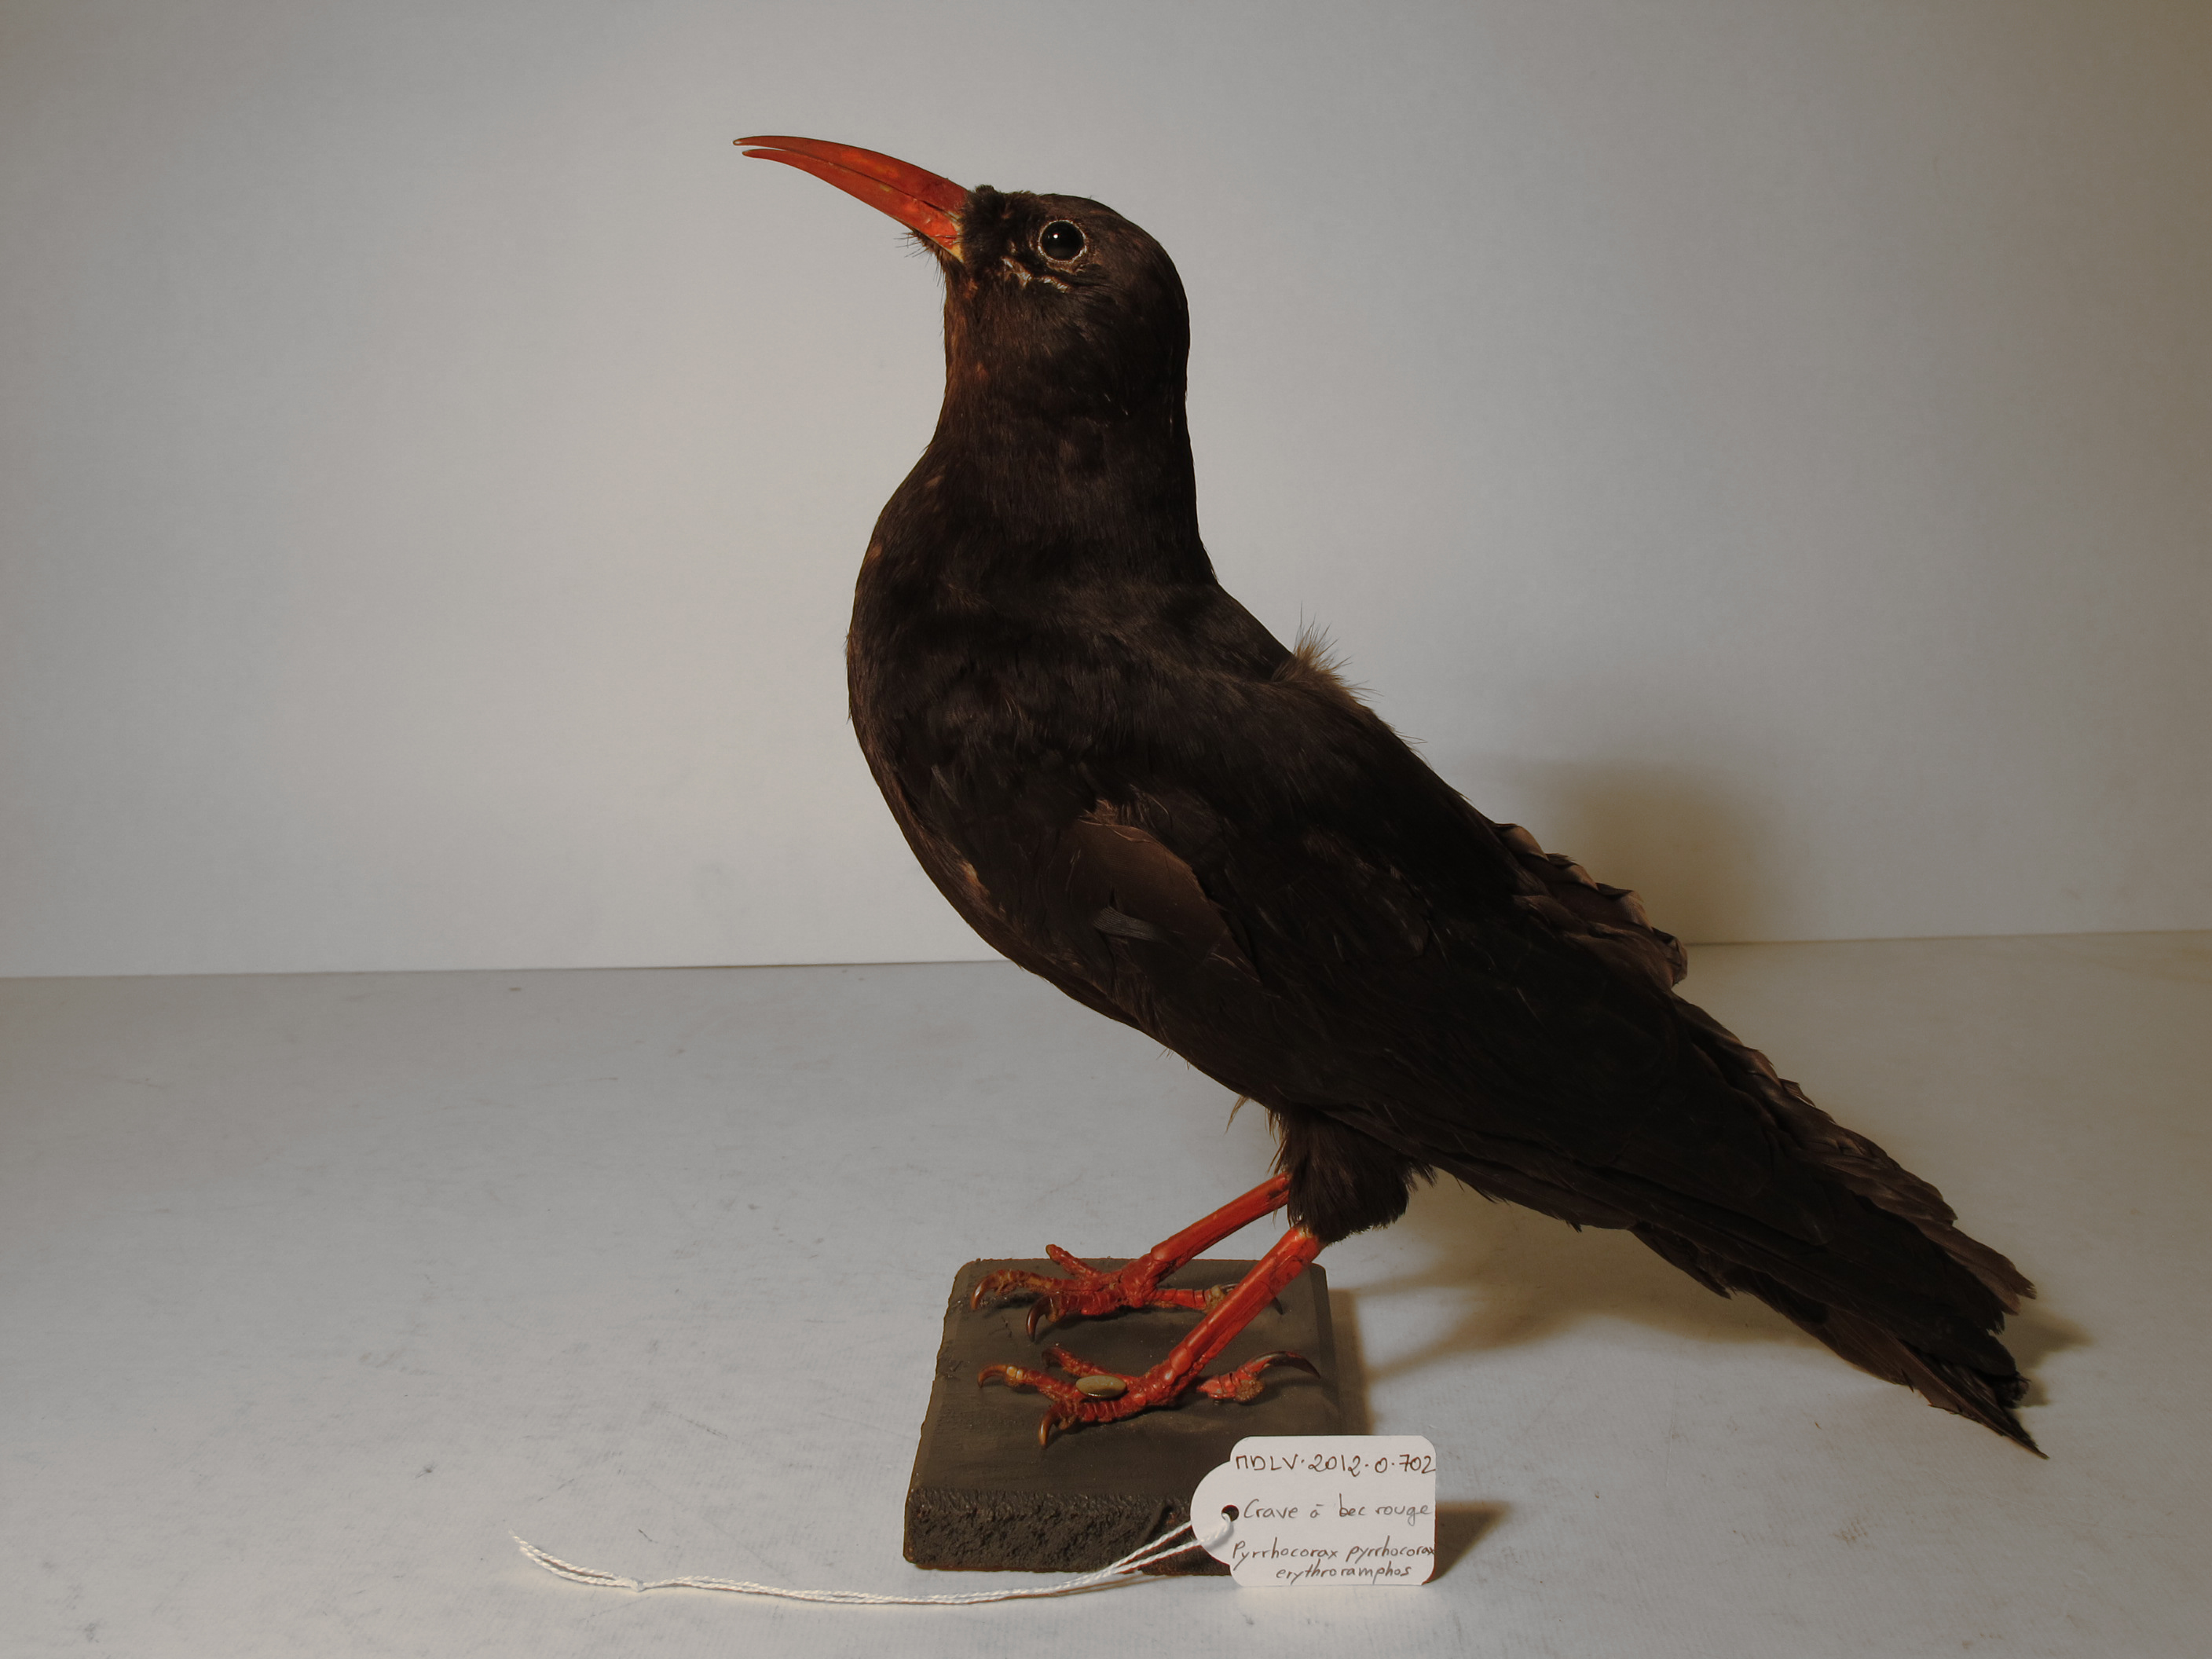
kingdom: Animalia
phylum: Chordata
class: Aves
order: Passeriformes
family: Corvidae
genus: Pyrrhocorax
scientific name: Pyrrhocorax pyrrhocorax
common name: Red-billed Chough
